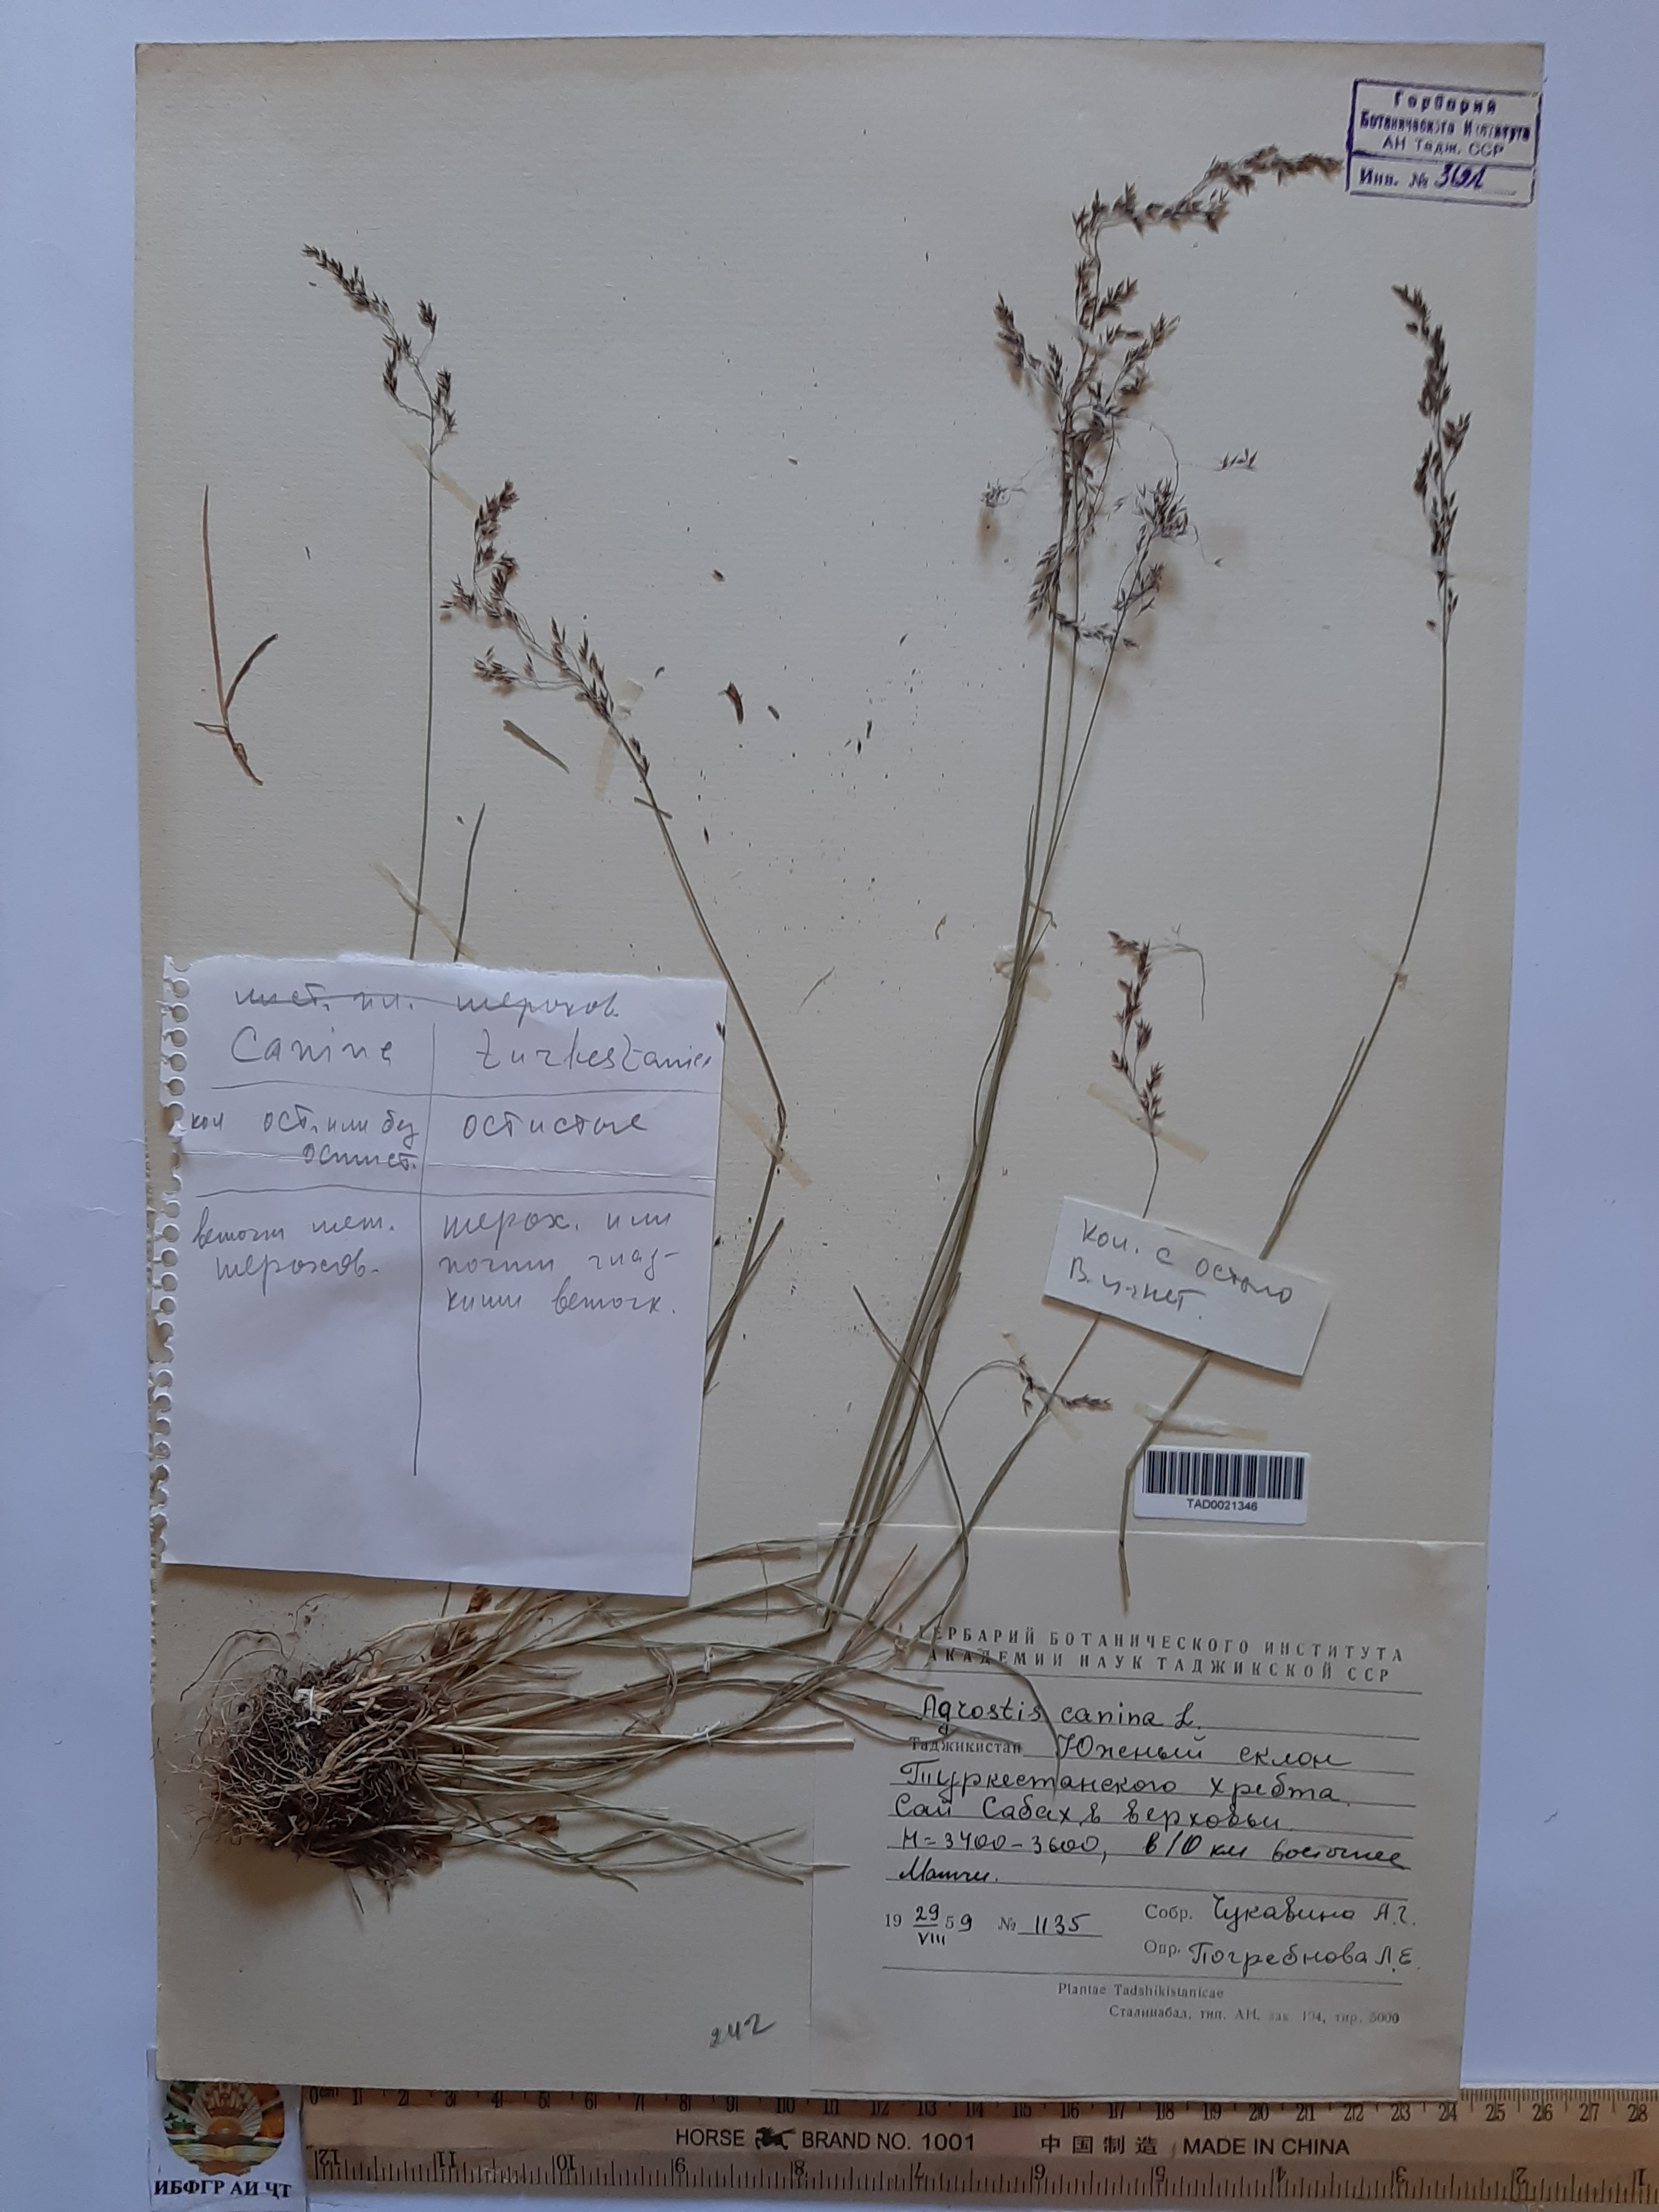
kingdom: Plantae
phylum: Tracheophyta
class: Liliopsida
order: Poales
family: Poaceae
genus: Agrostis
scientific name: Agrostis canina
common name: Velvet bent
